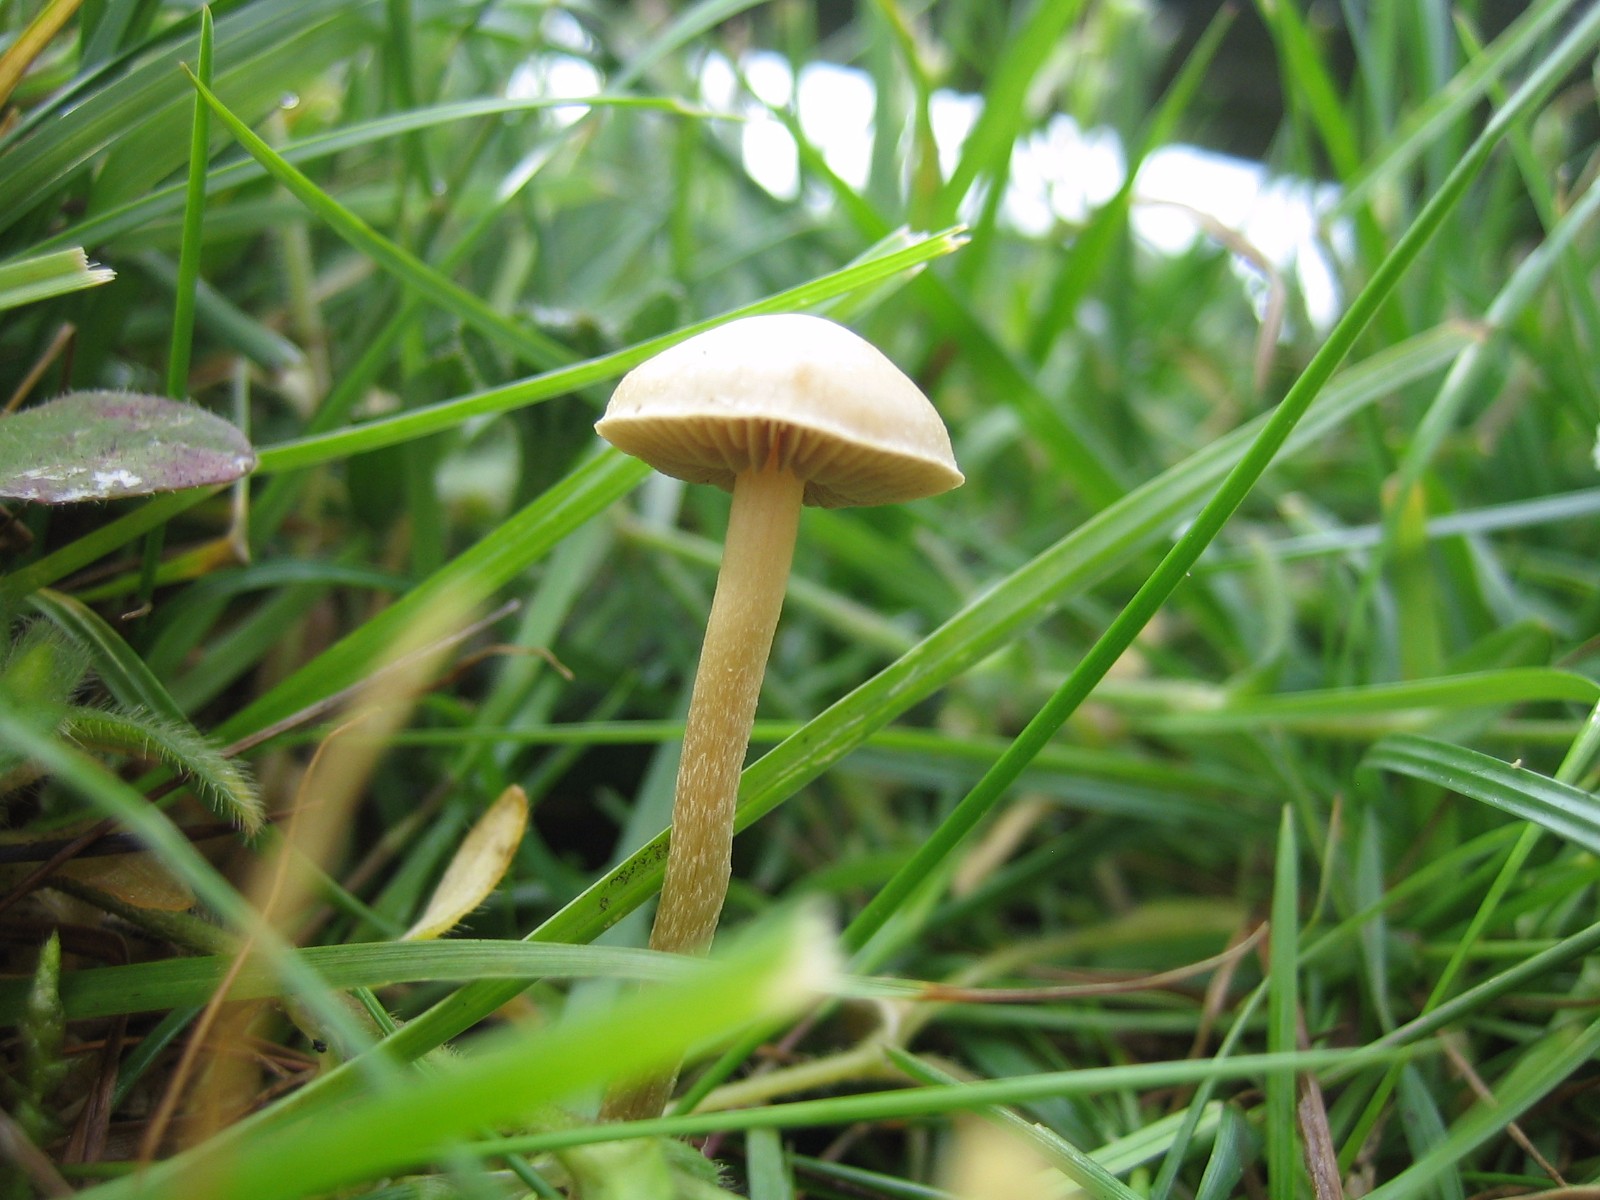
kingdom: Fungi
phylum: Basidiomycota
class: Agaricomycetes
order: Agaricales
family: Strophariaceae
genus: Agrocybe
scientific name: Agrocybe pediades
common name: almindelig agerhat
